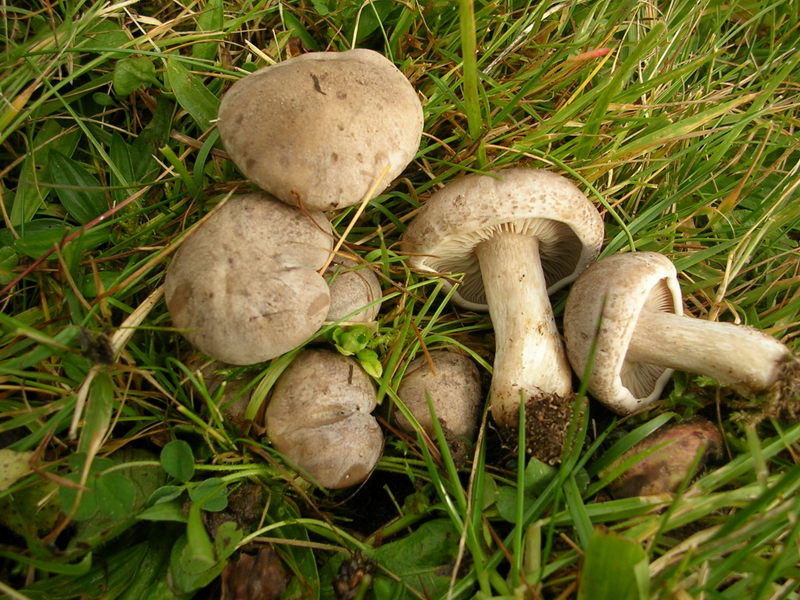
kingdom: Fungi
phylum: Basidiomycota
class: Agaricomycetes
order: Agaricales
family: Tricholomataceae
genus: Lepista
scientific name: Lepista panaeolus
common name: marmoreret hekseringshat
